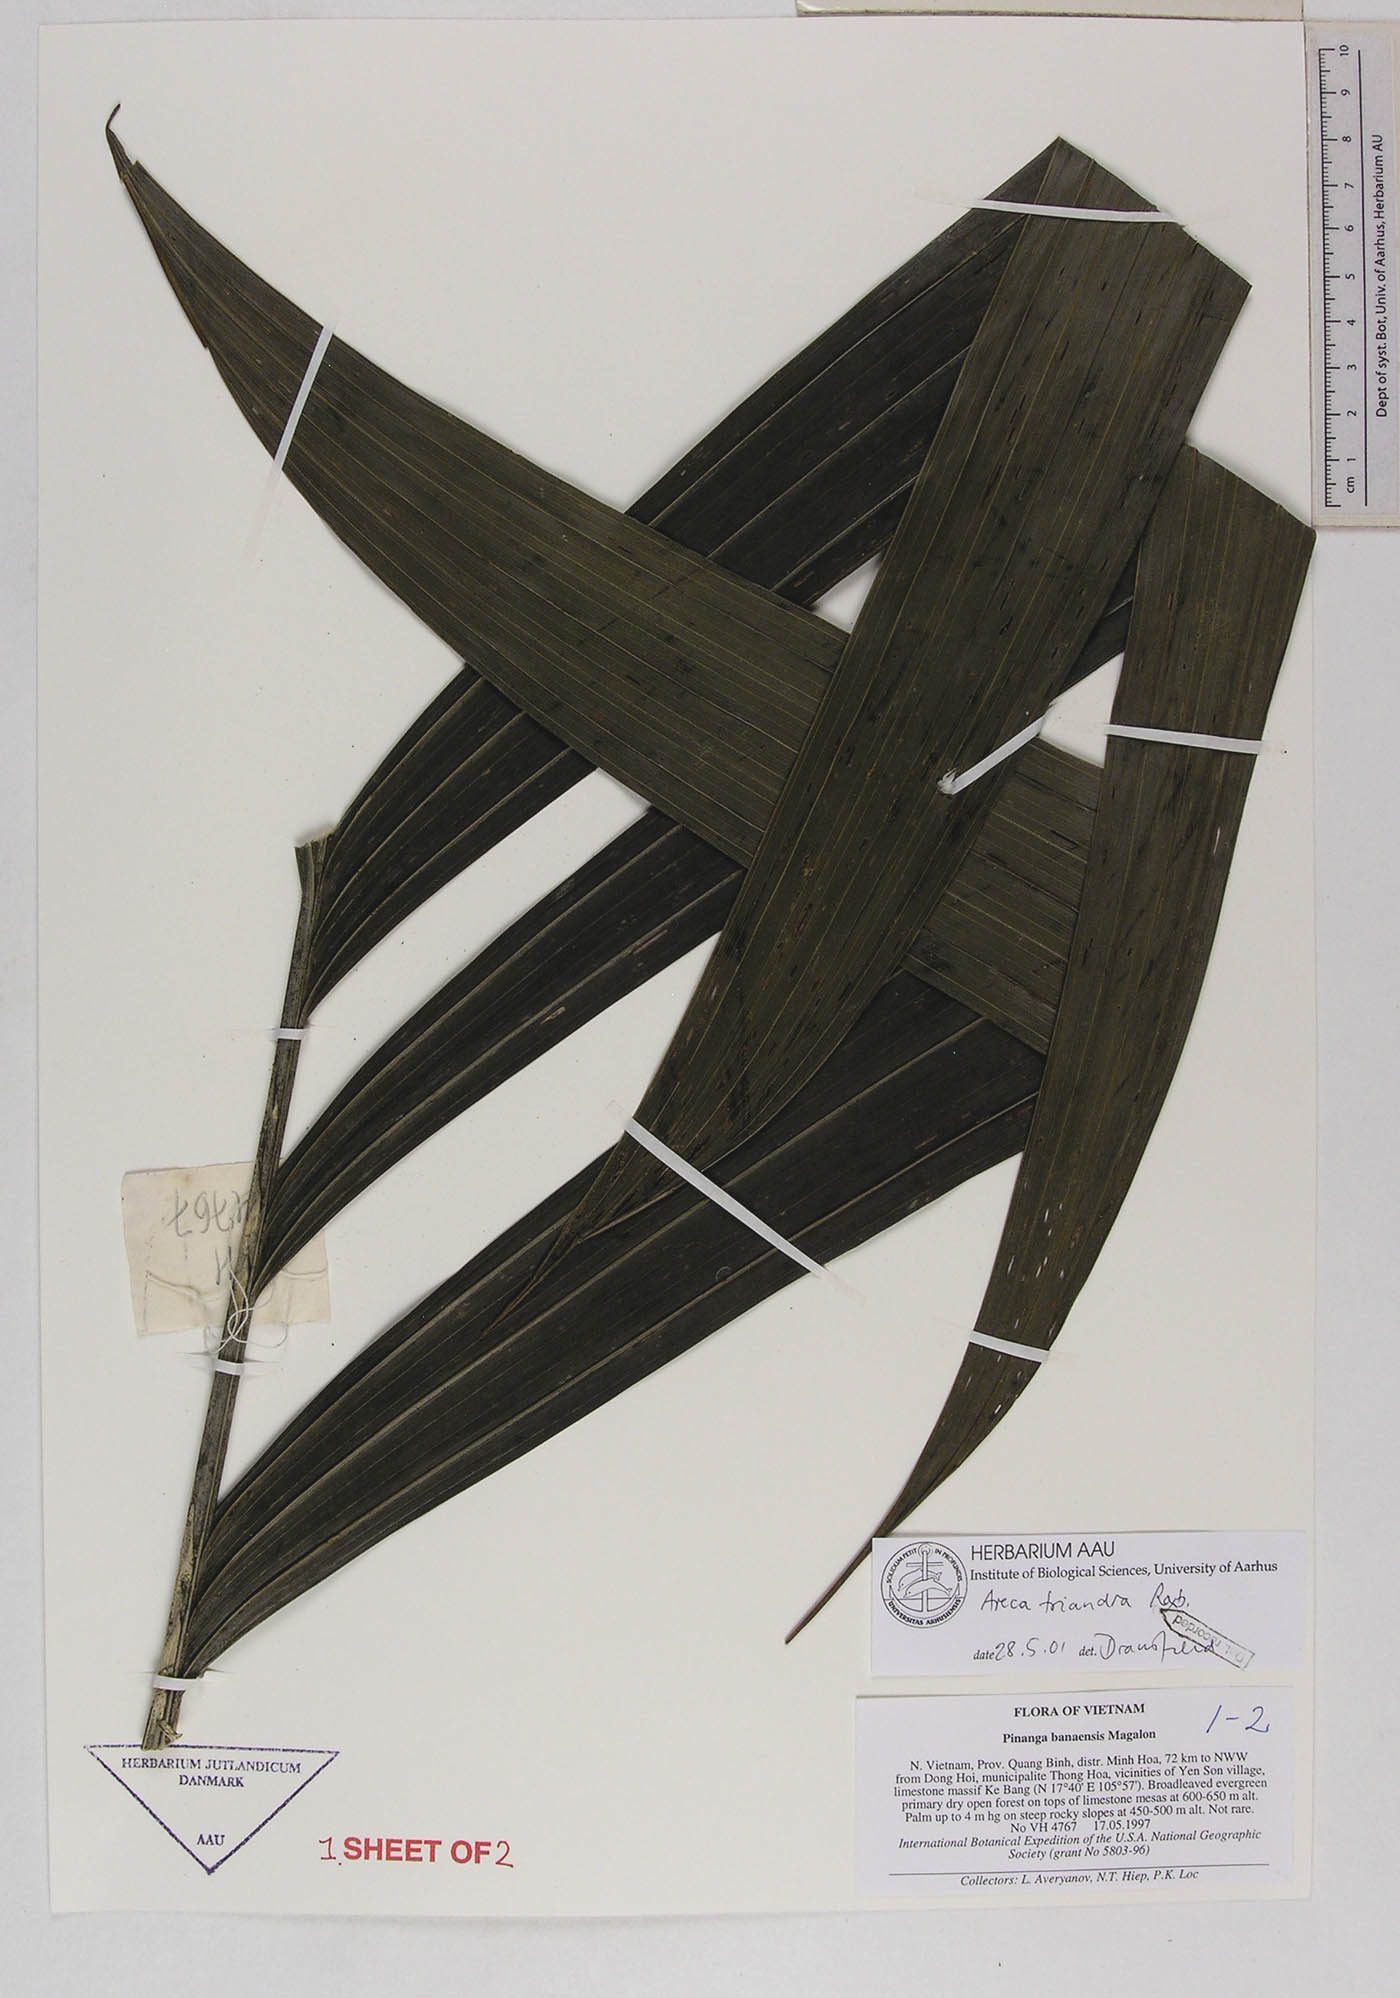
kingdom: Plantae
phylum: Tracheophyta
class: Liliopsida
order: Arecales
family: Arecaceae
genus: Areca
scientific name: Areca triandra
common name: Australian areca palm
